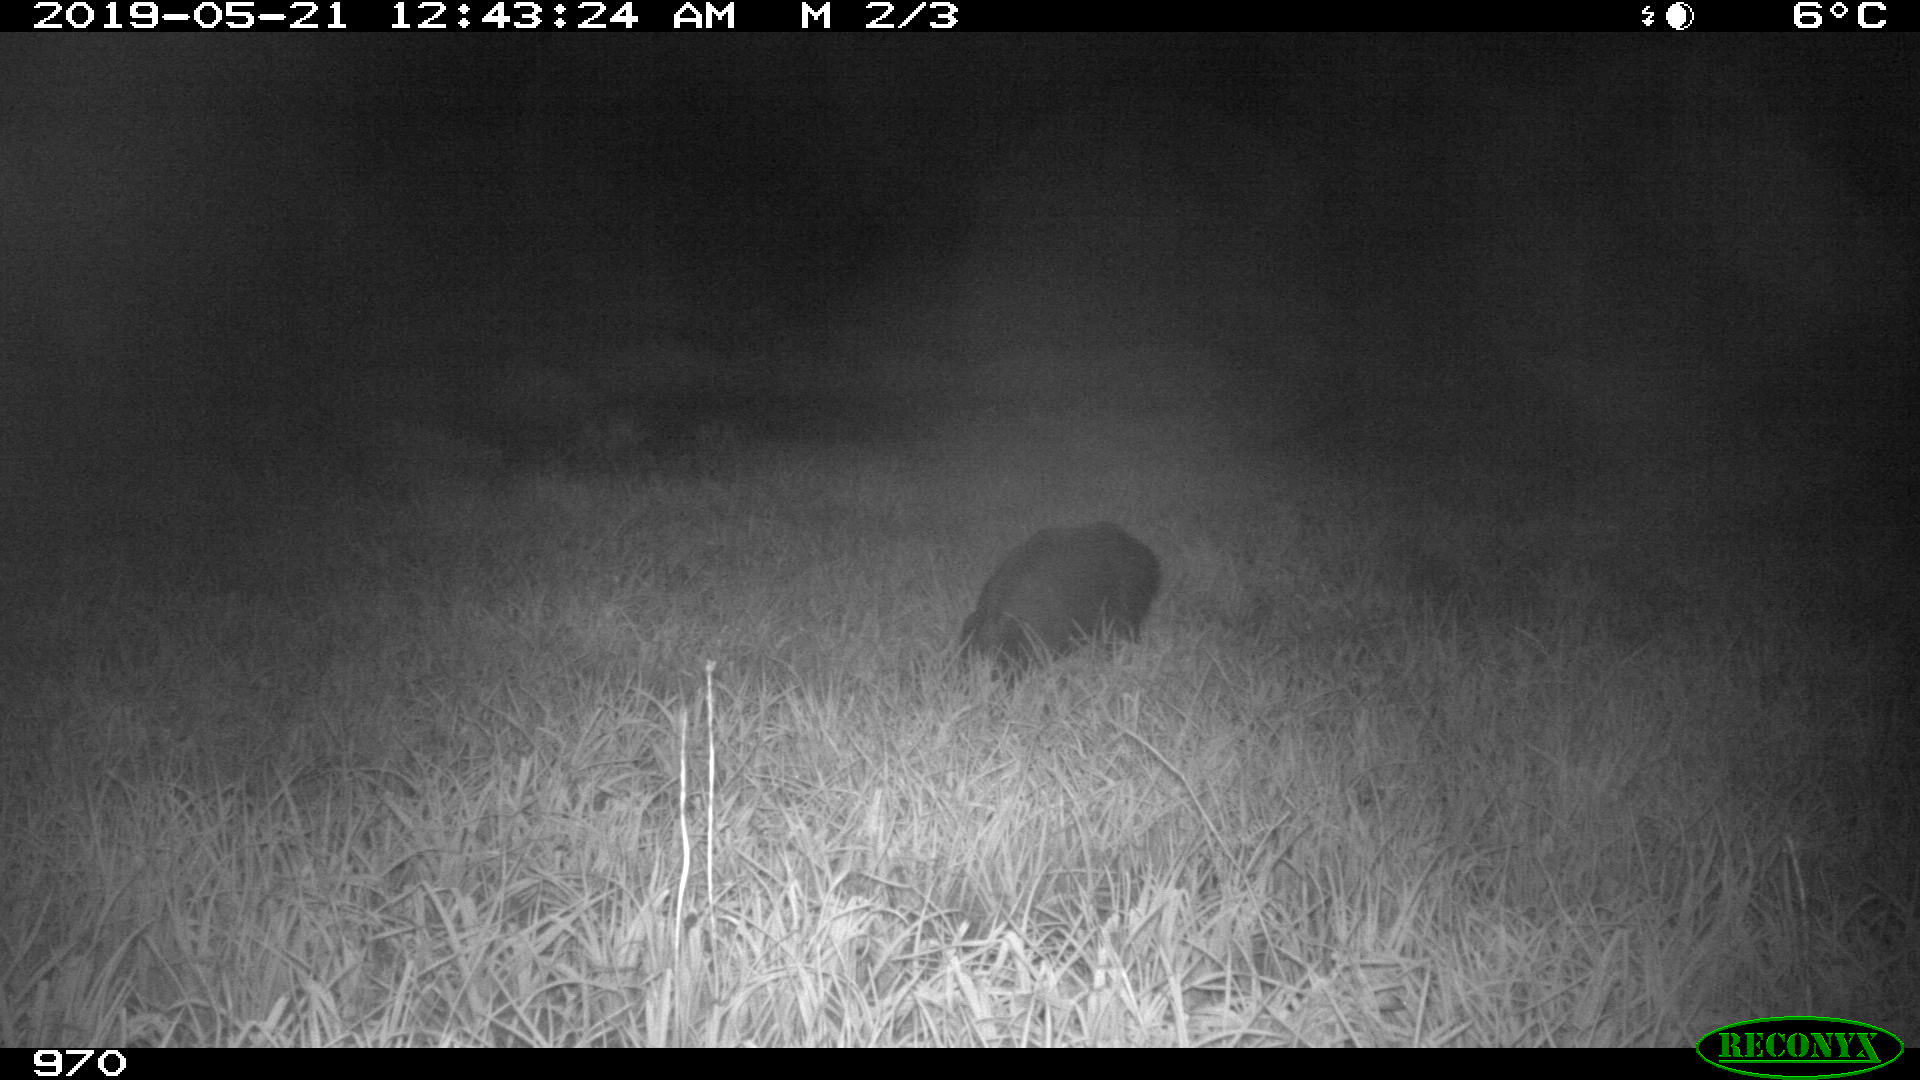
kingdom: Animalia
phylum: Chordata
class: Mammalia
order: Artiodactyla
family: Suidae
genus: Sus
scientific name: Sus scrofa
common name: Wild boar
